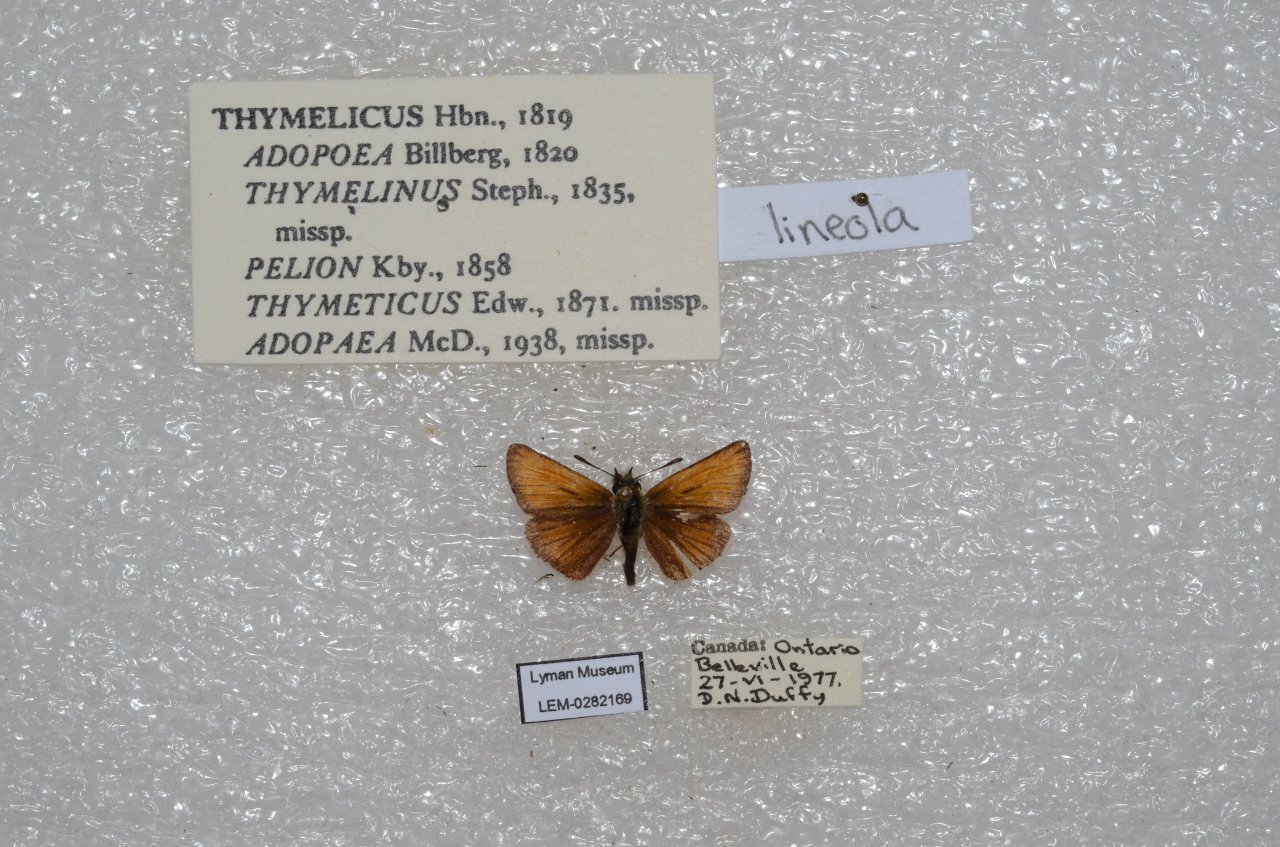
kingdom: Animalia
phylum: Arthropoda
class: Insecta
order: Lepidoptera
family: Hesperiidae
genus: Thymelicus
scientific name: Thymelicus lineola
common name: European Skipper
